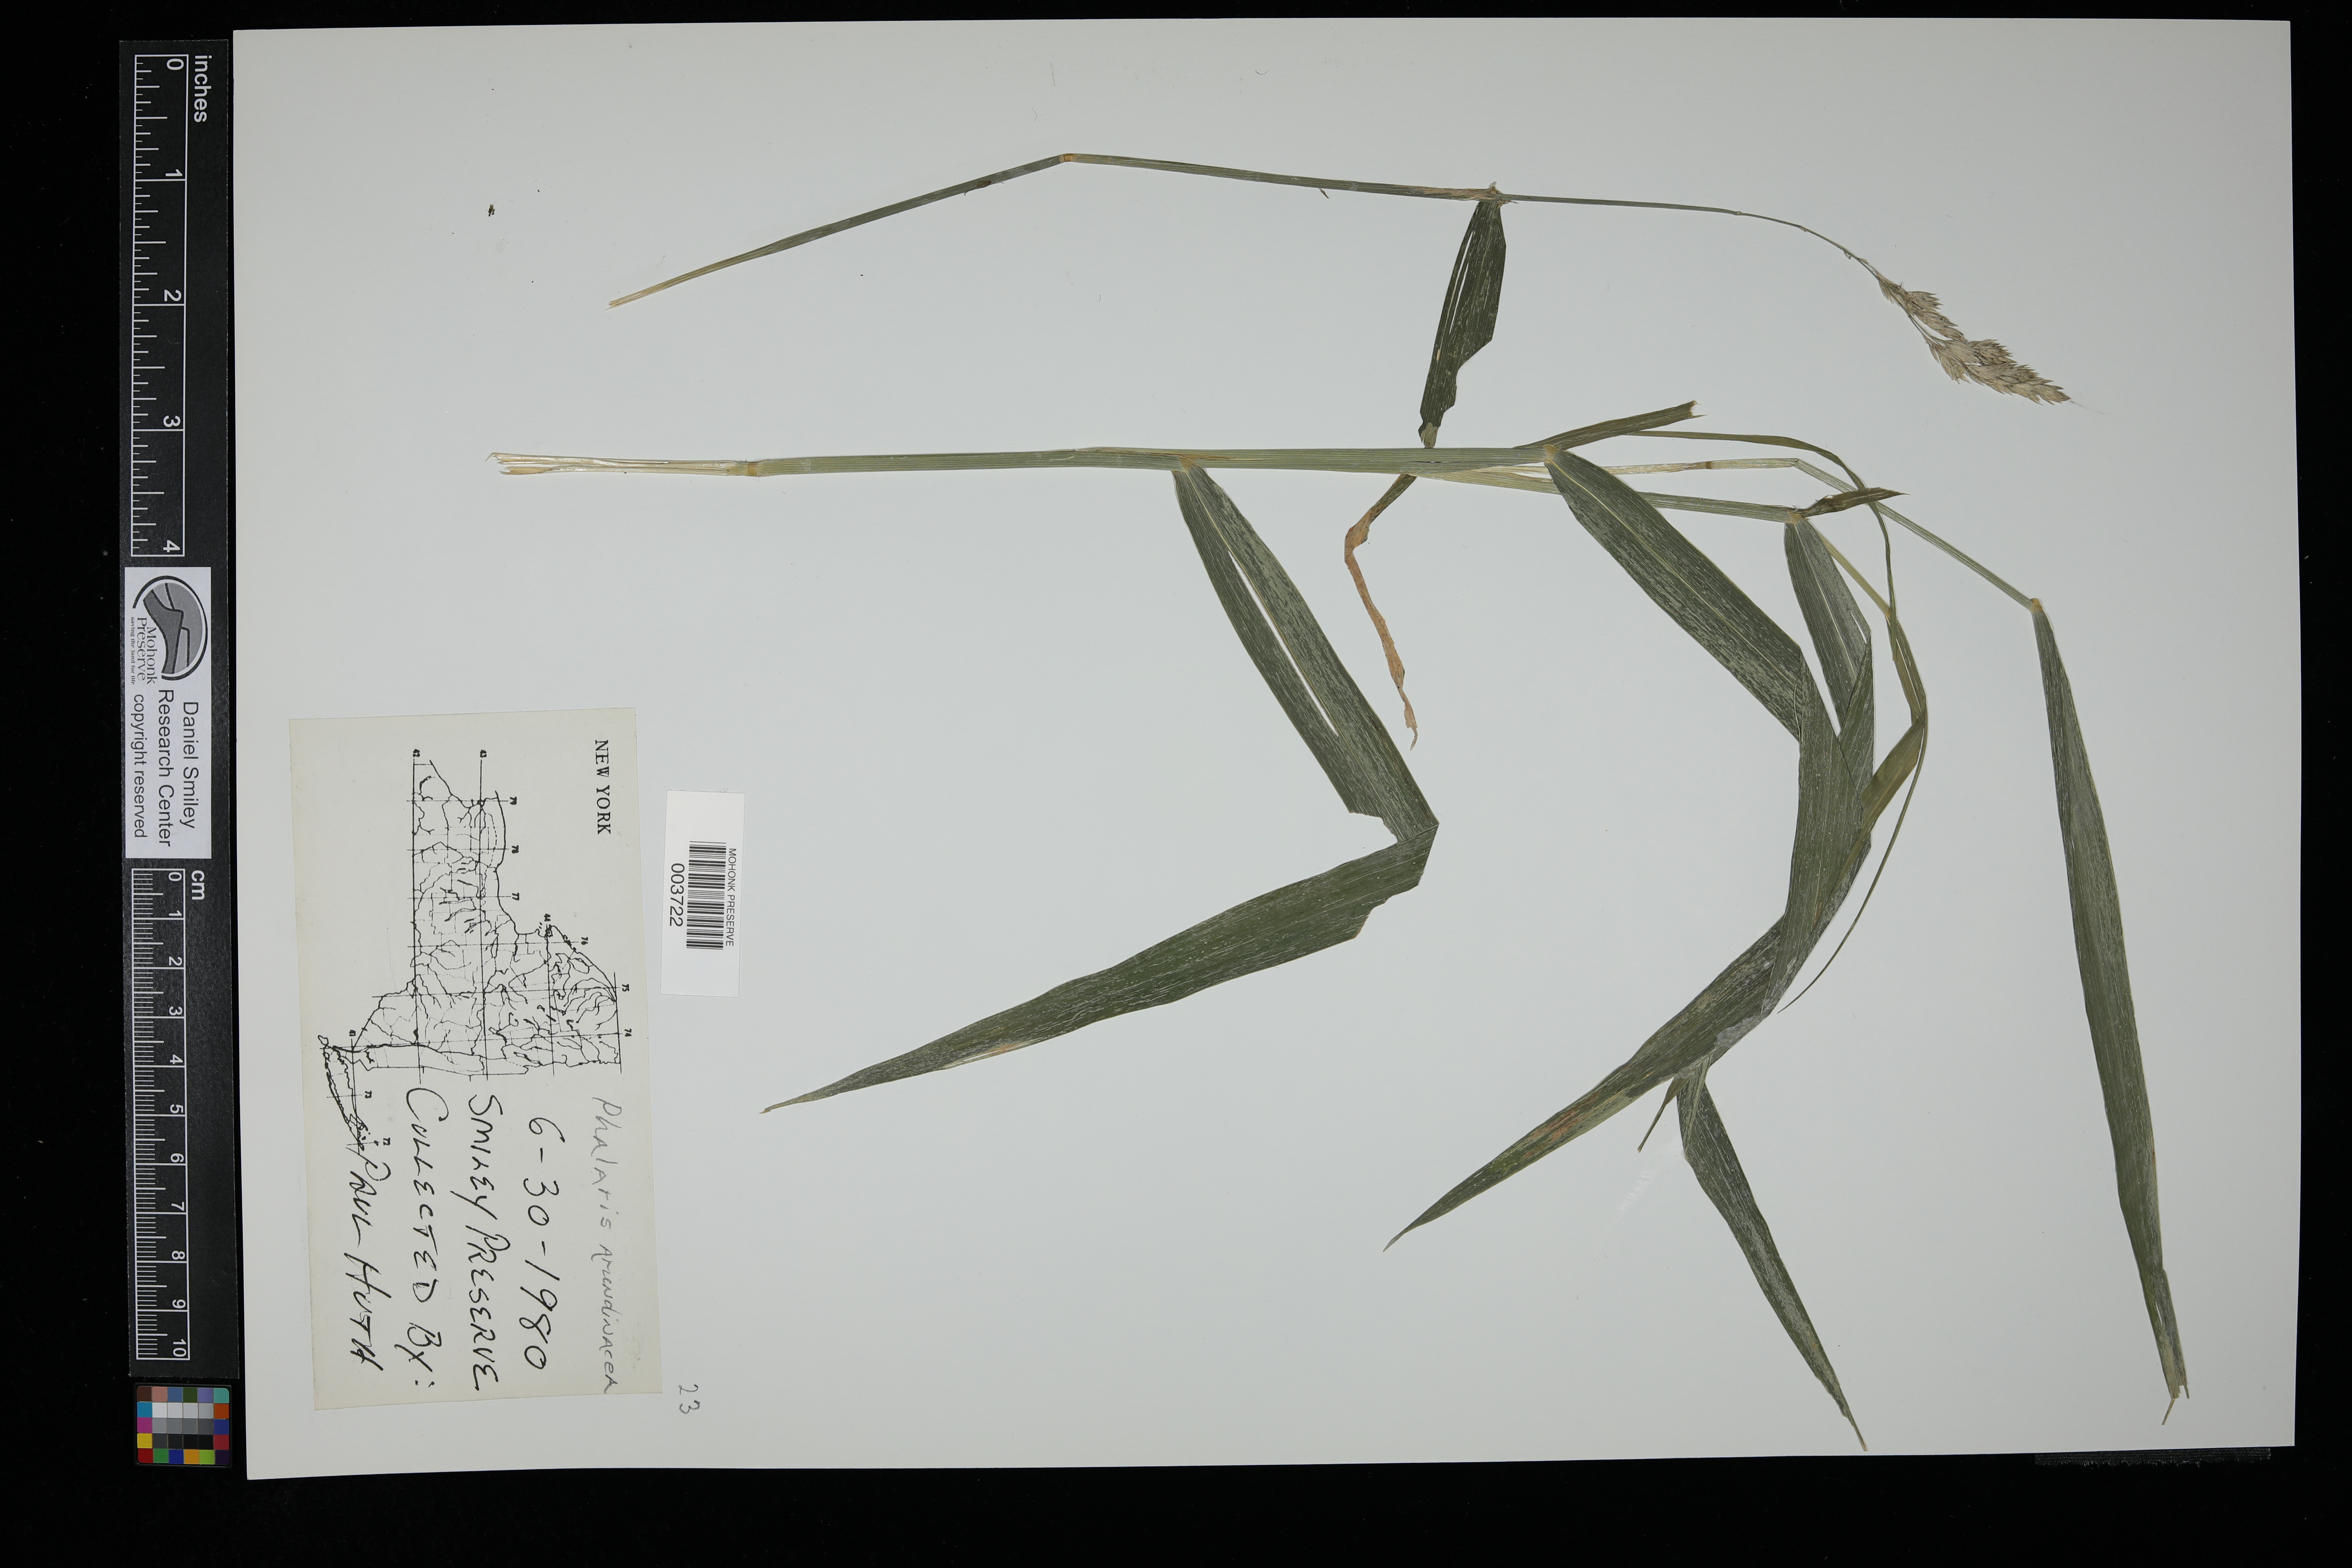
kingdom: Plantae
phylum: Tracheophyta
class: Liliopsida
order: Poales
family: Poaceae
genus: Phalaris
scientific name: Phalaris arundinacea
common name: Reed canary-grass
